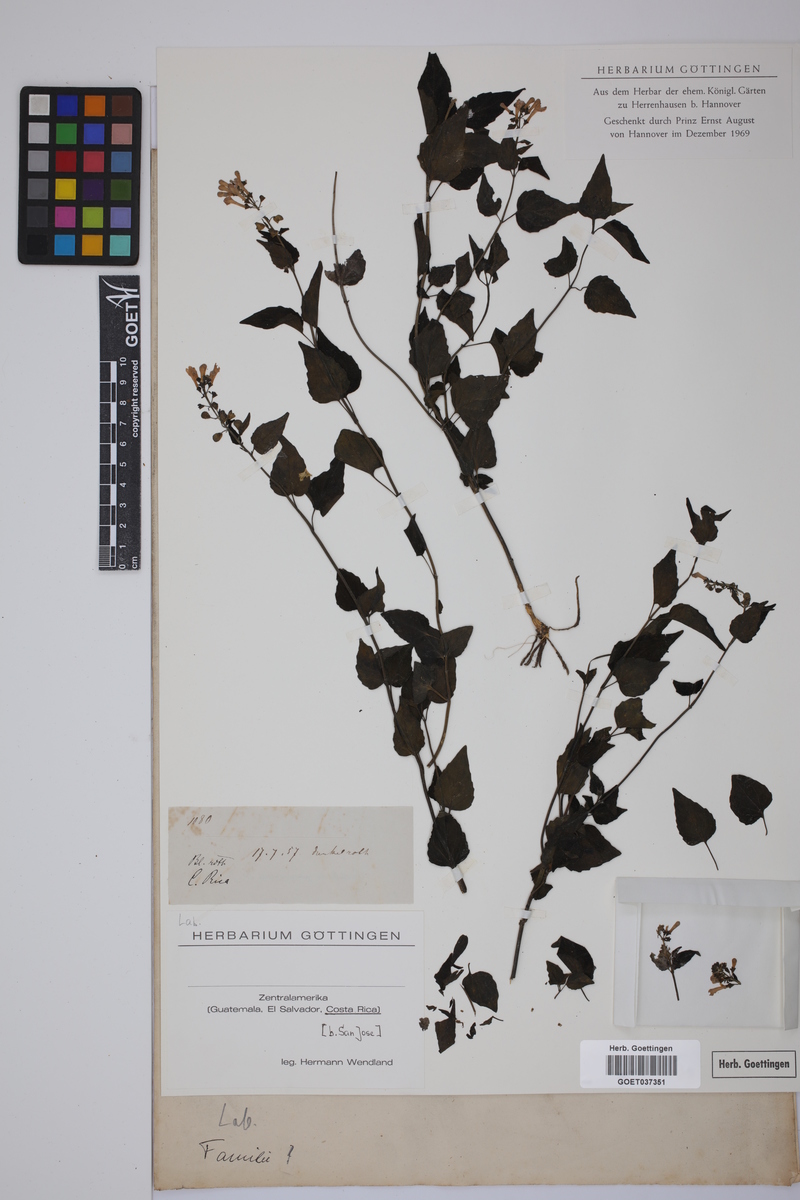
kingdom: Plantae
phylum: Tracheophyta
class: Magnoliopsida
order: Lamiales
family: Lamiaceae
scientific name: Lamiaceae
